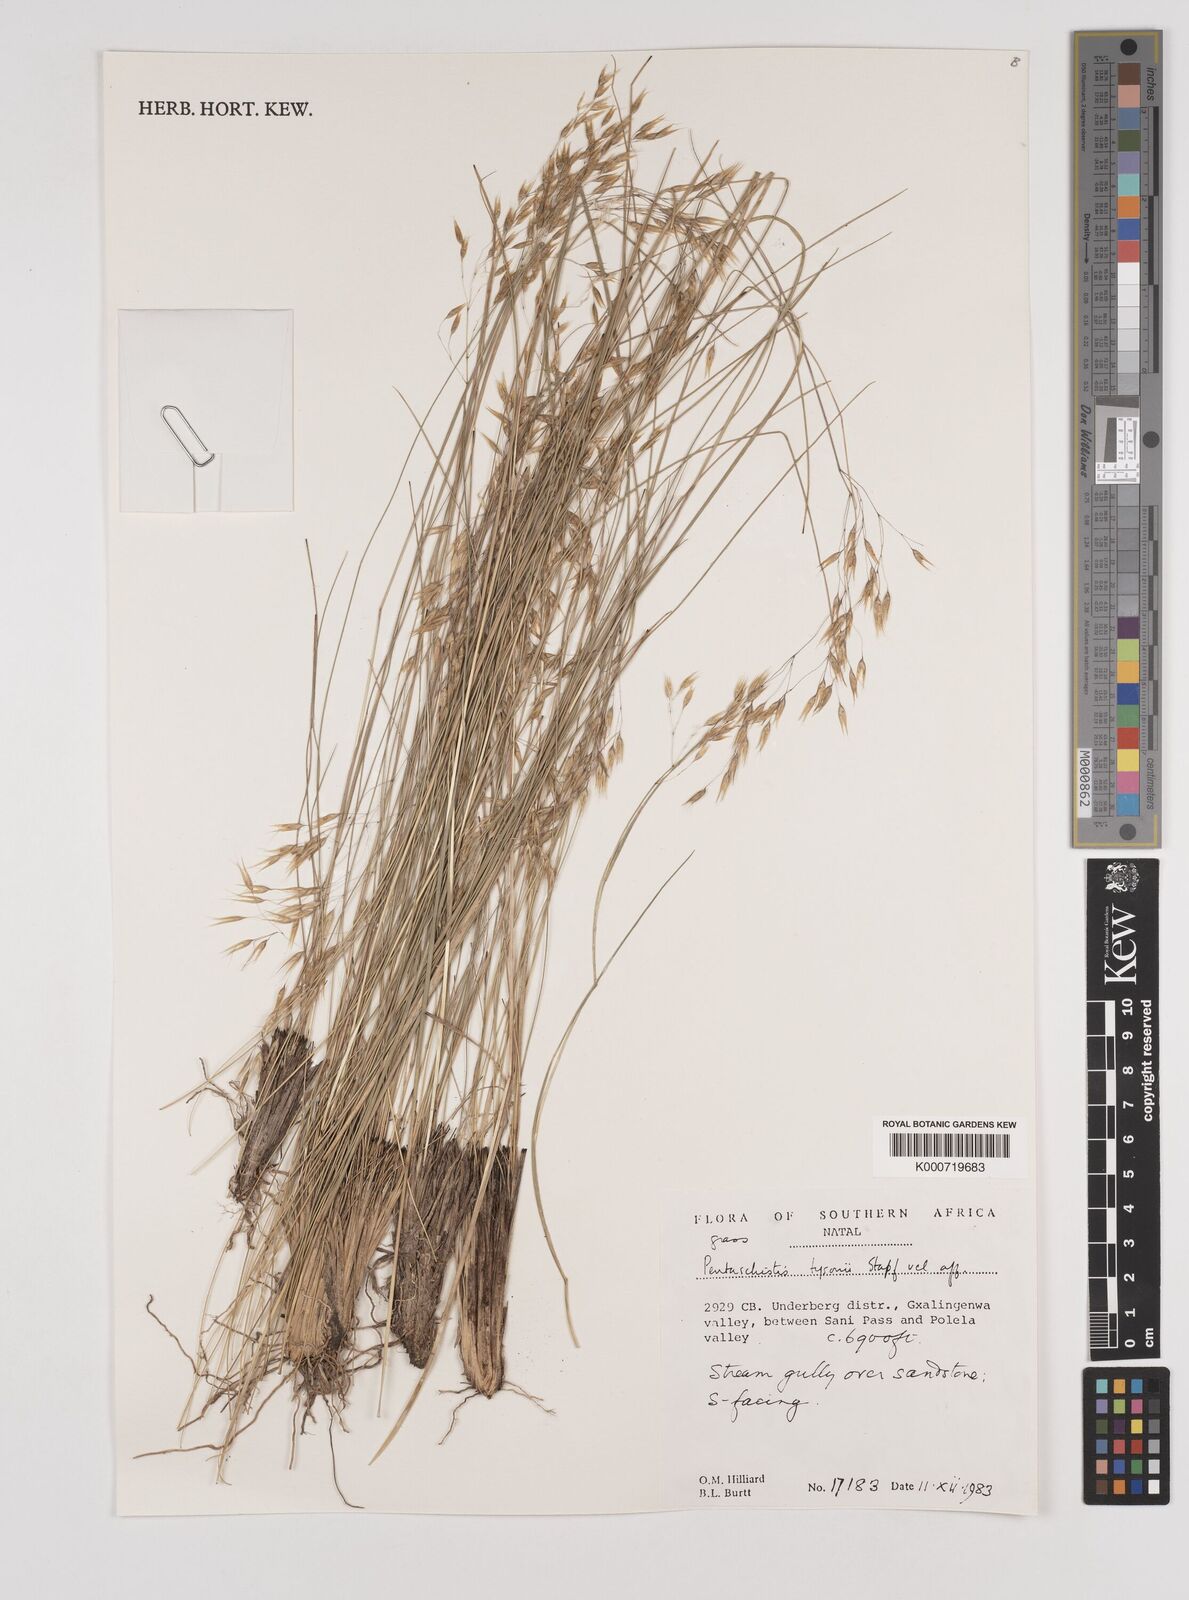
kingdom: Plantae
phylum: Tracheophyta
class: Liliopsida
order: Poales
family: Poaceae
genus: Pentameris
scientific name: Pentameris tysonii
